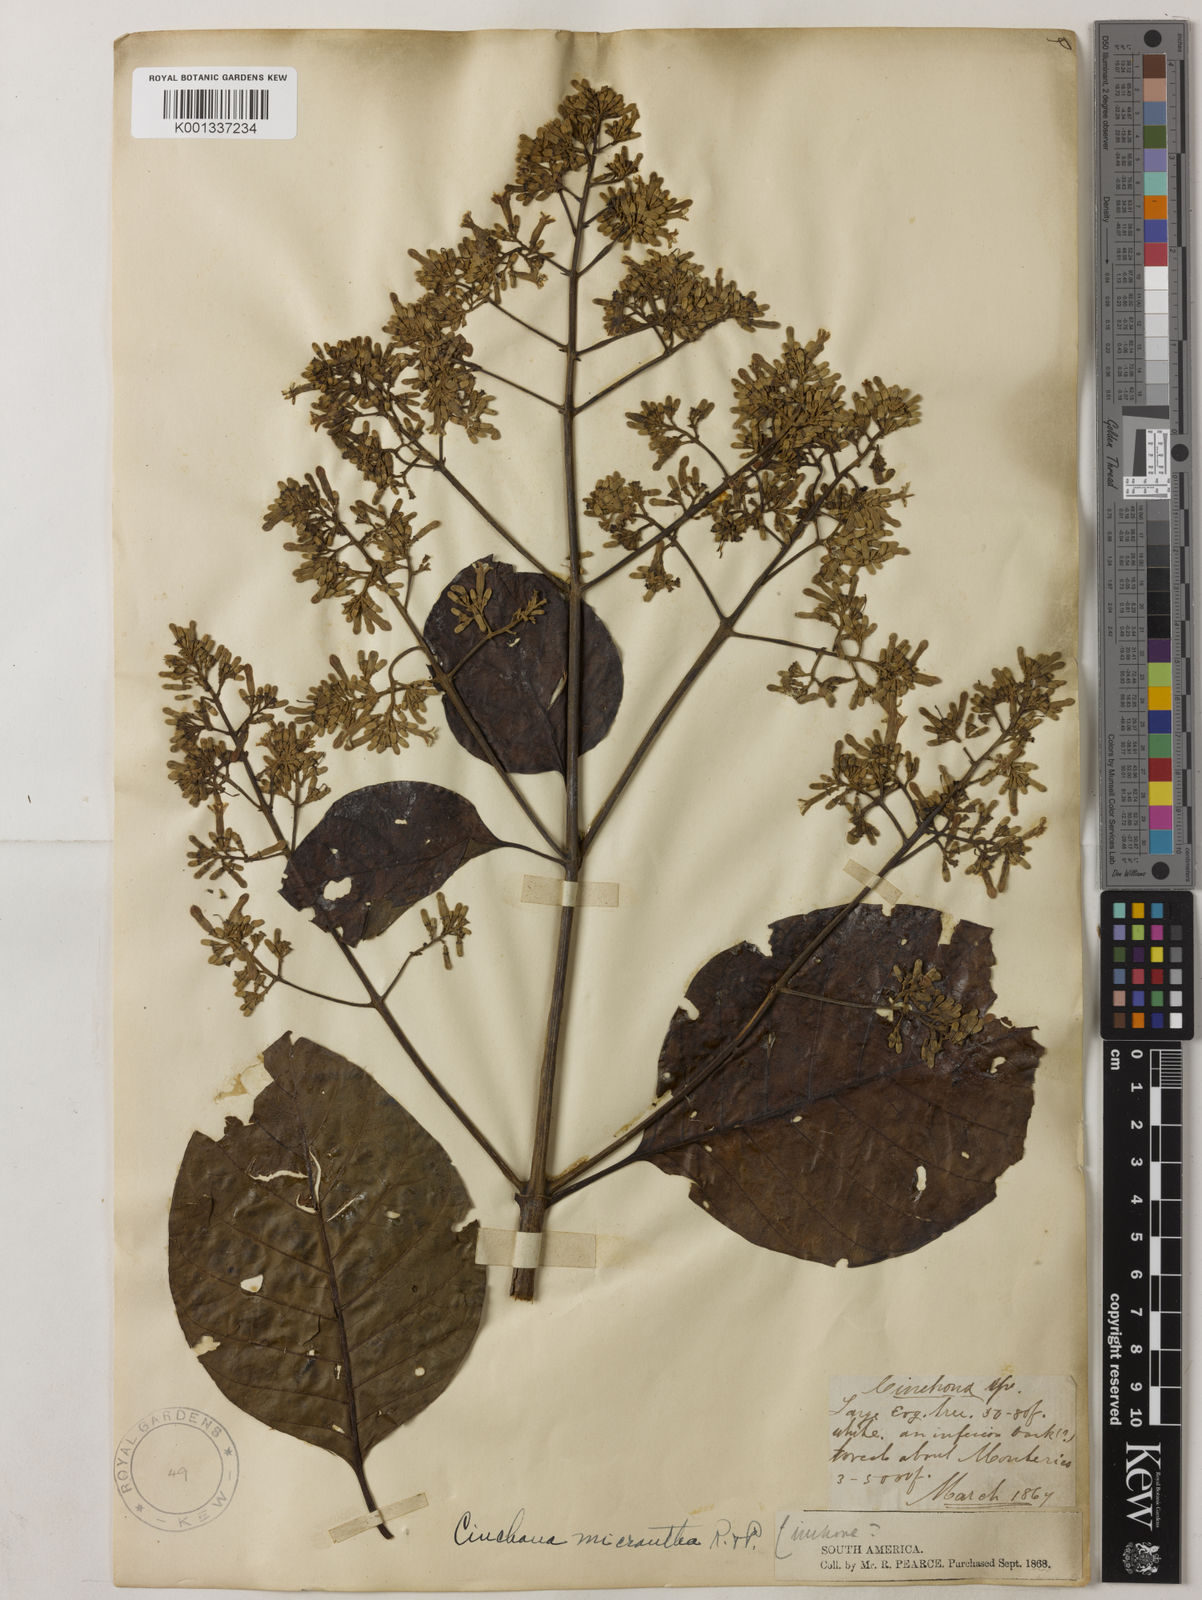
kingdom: Plantae
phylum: Tracheophyta
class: Magnoliopsida
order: Gentianales
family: Rubiaceae
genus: Cinchona
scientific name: Cinchona micrantha
